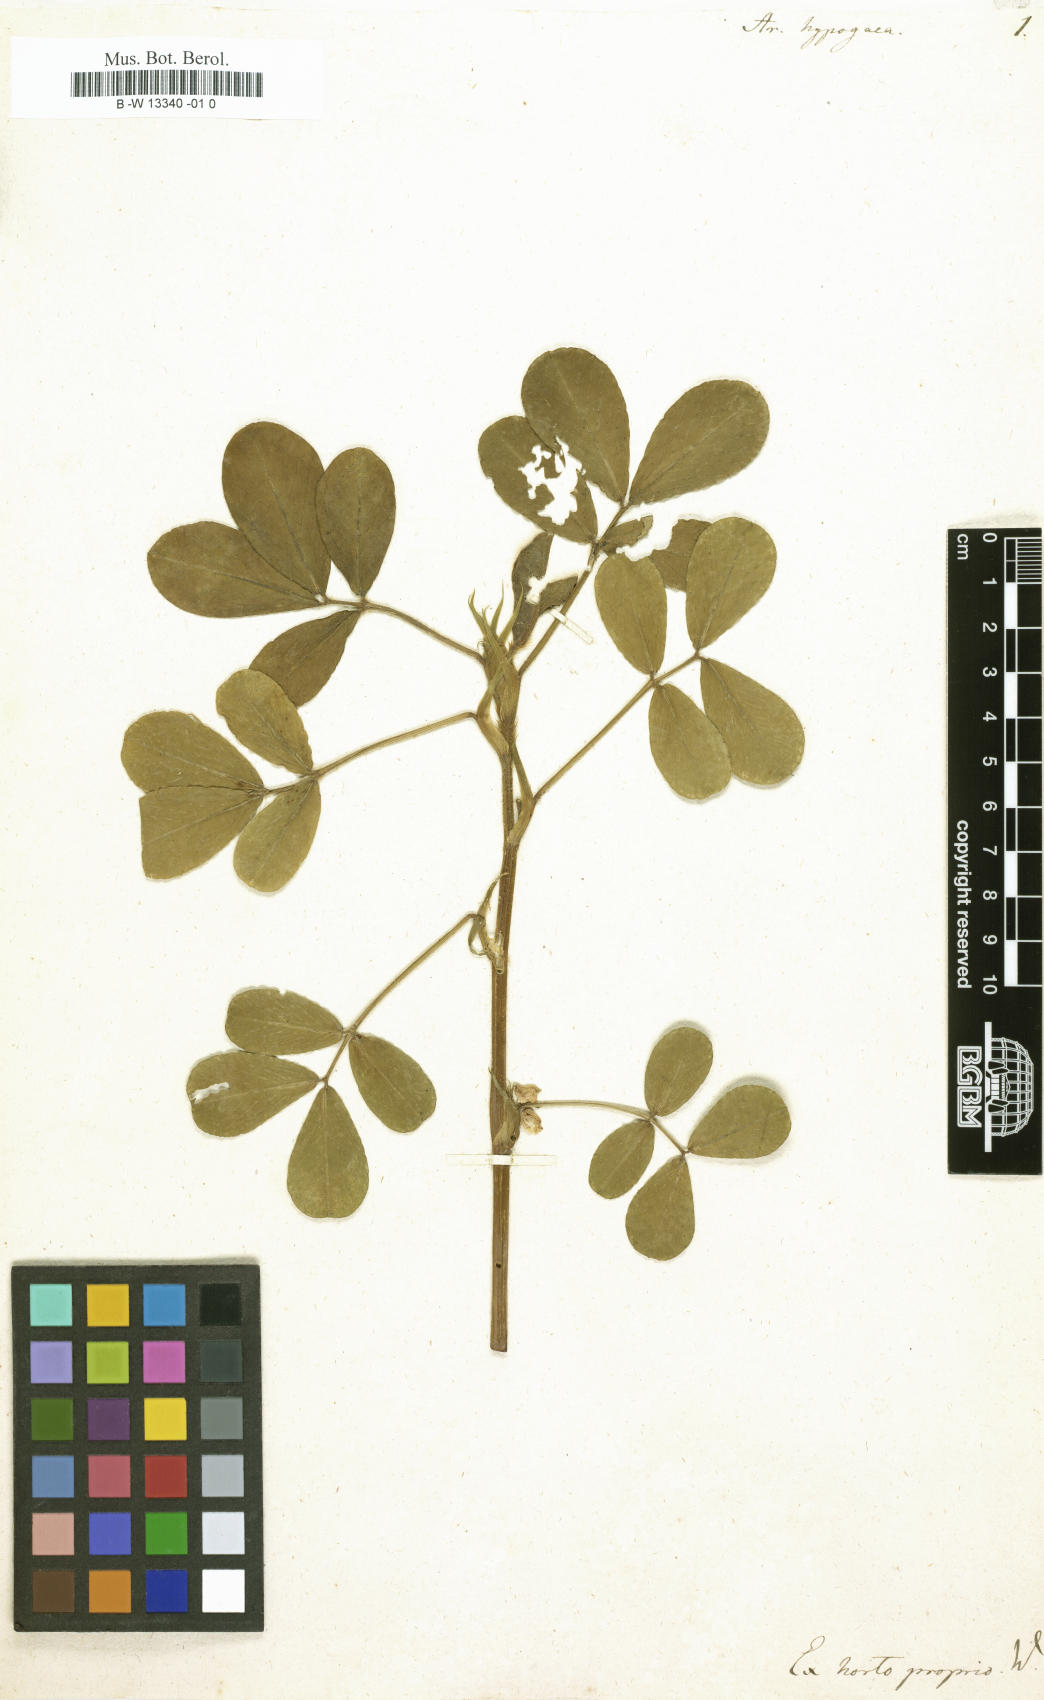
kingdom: Plantae
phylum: Tracheophyta
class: Magnoliopsida
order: Fabales
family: Fabaceae
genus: Arachis
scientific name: Arachis hypogaea
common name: Peanut
